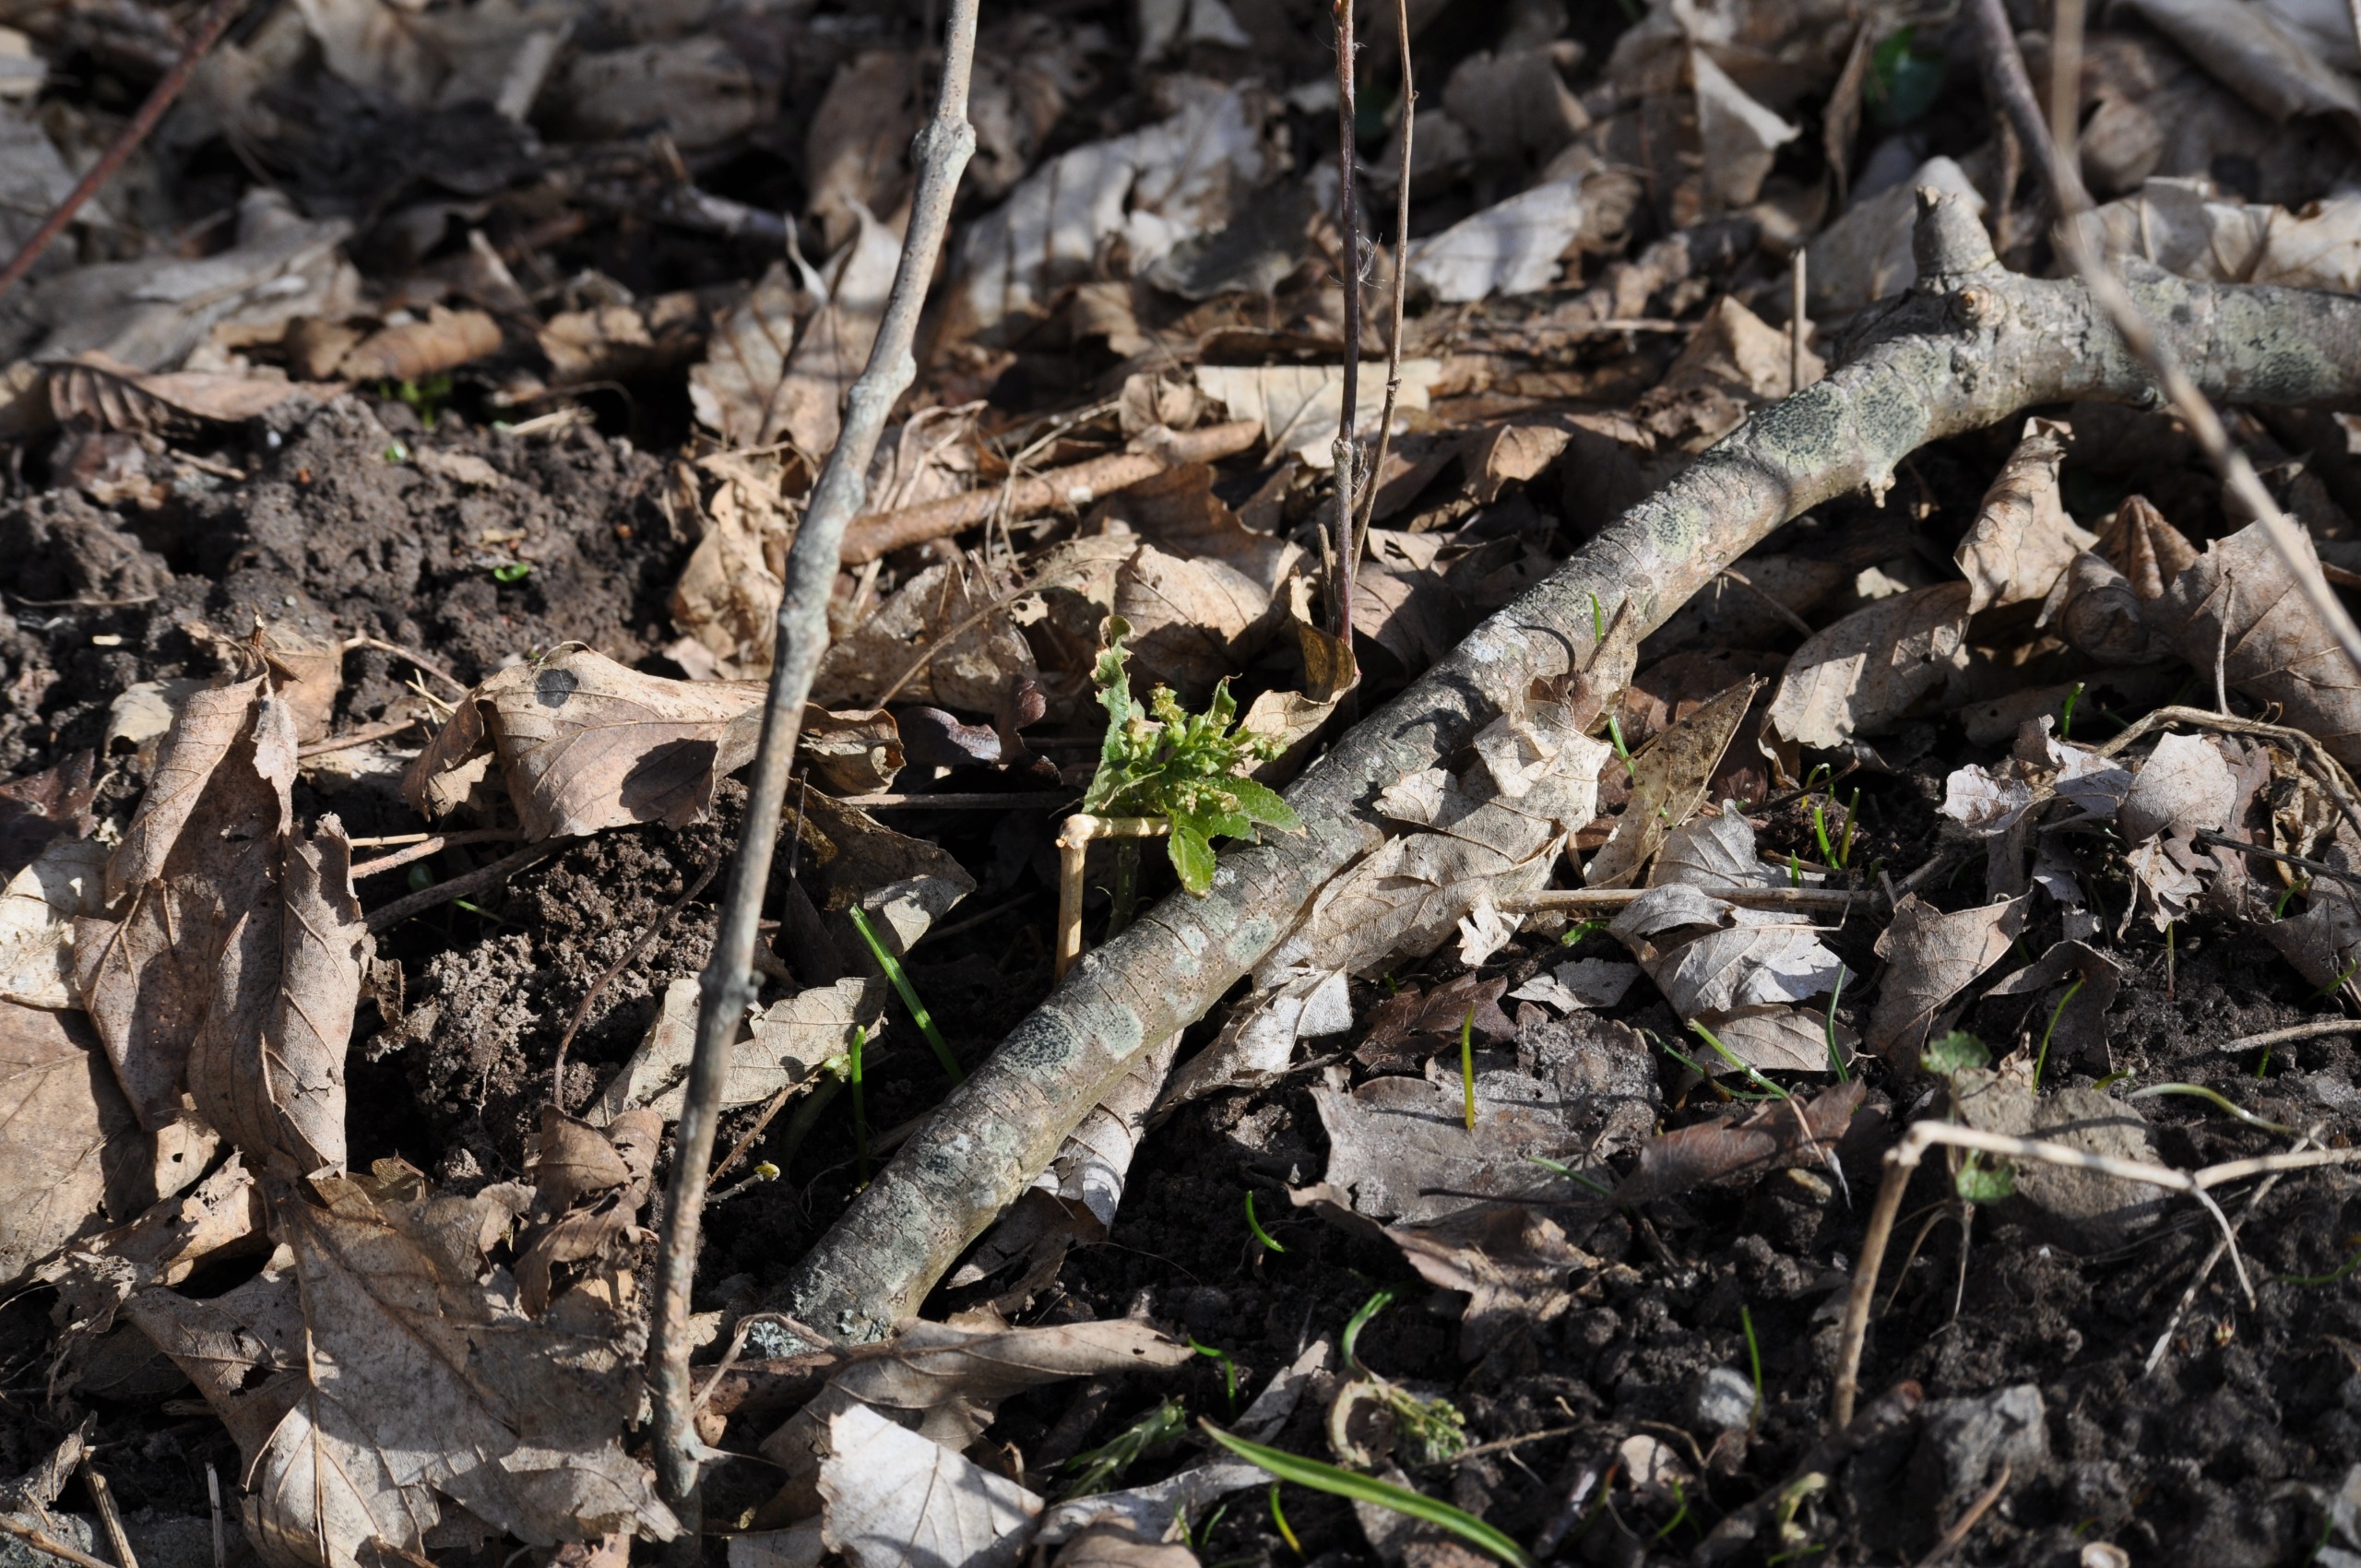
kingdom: Plantae
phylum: Tracheophyta
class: Magnoliopsida
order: Malpighiales
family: Euphorbiaceae
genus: Mercurialis
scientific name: Mercurialis perennis
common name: Almindelig bingelurt
